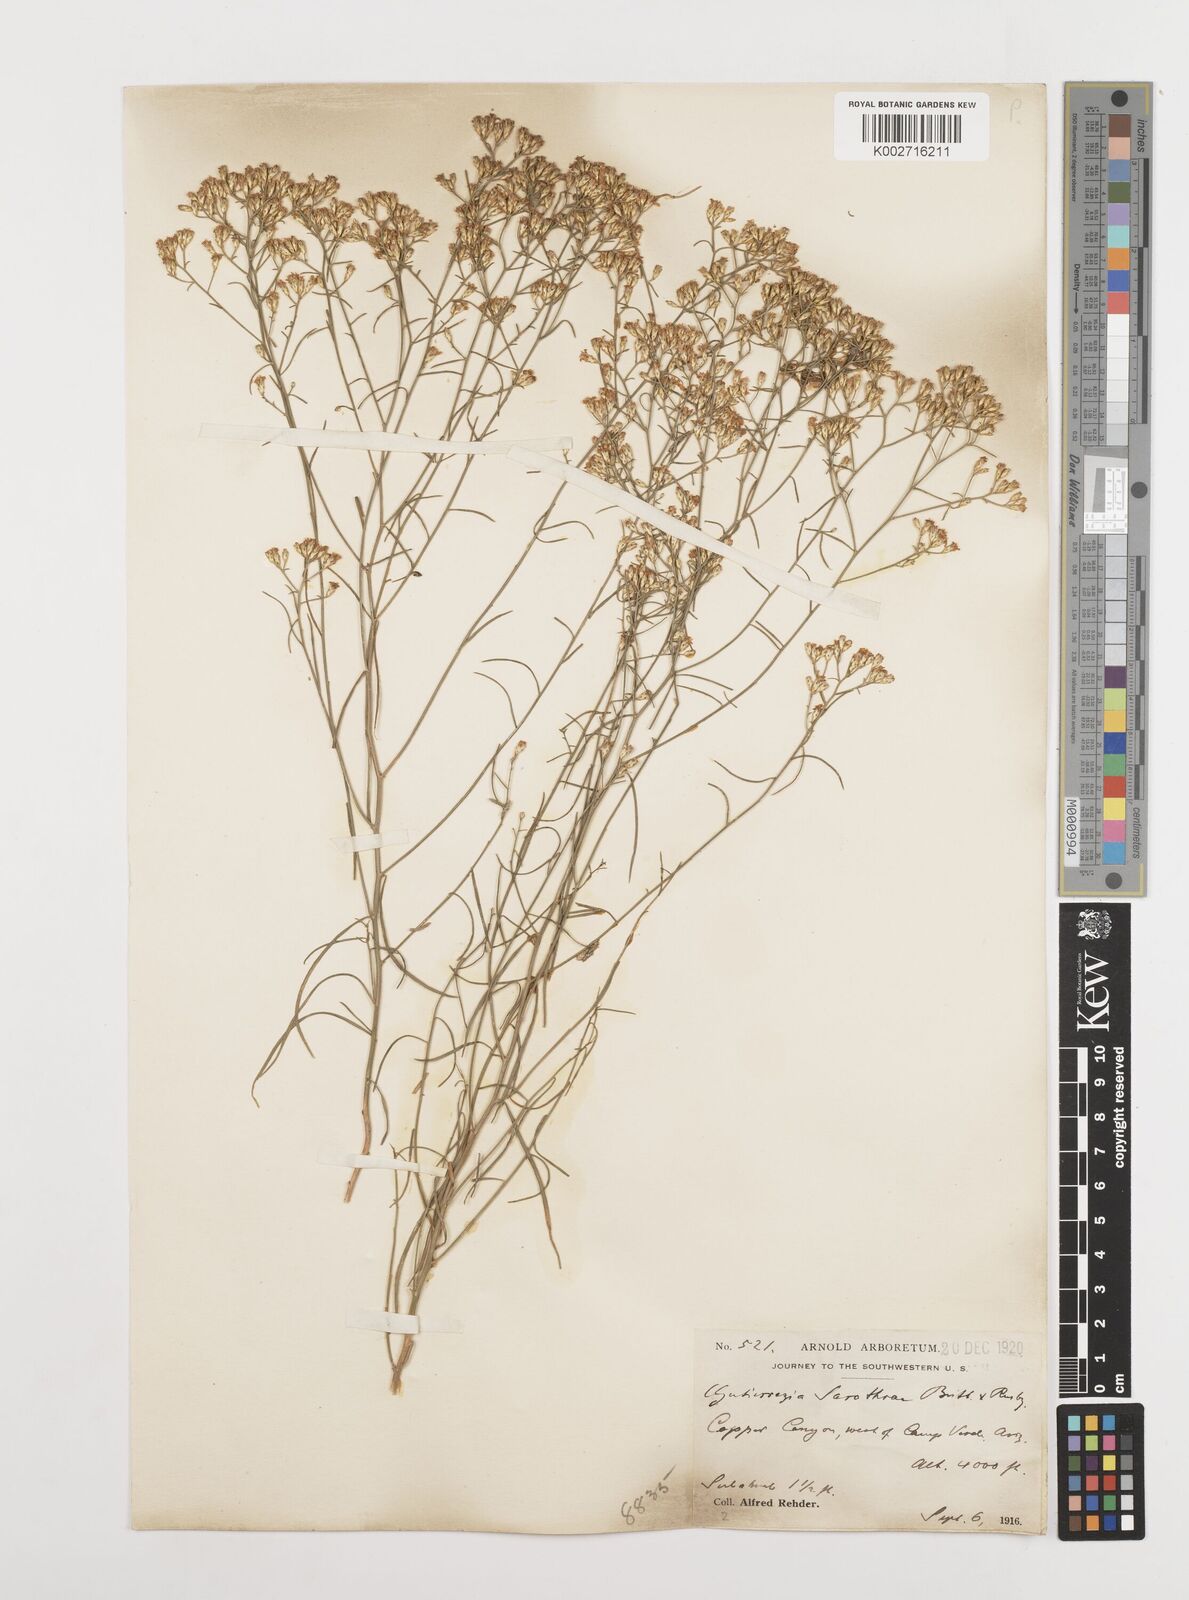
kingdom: Plantae
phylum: Tracheophyta
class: Magnoliopsida
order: Asterales
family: Asteraceae
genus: Gutierrezia
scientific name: Gutierrezia sarothrae
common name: Broom snakeweed
